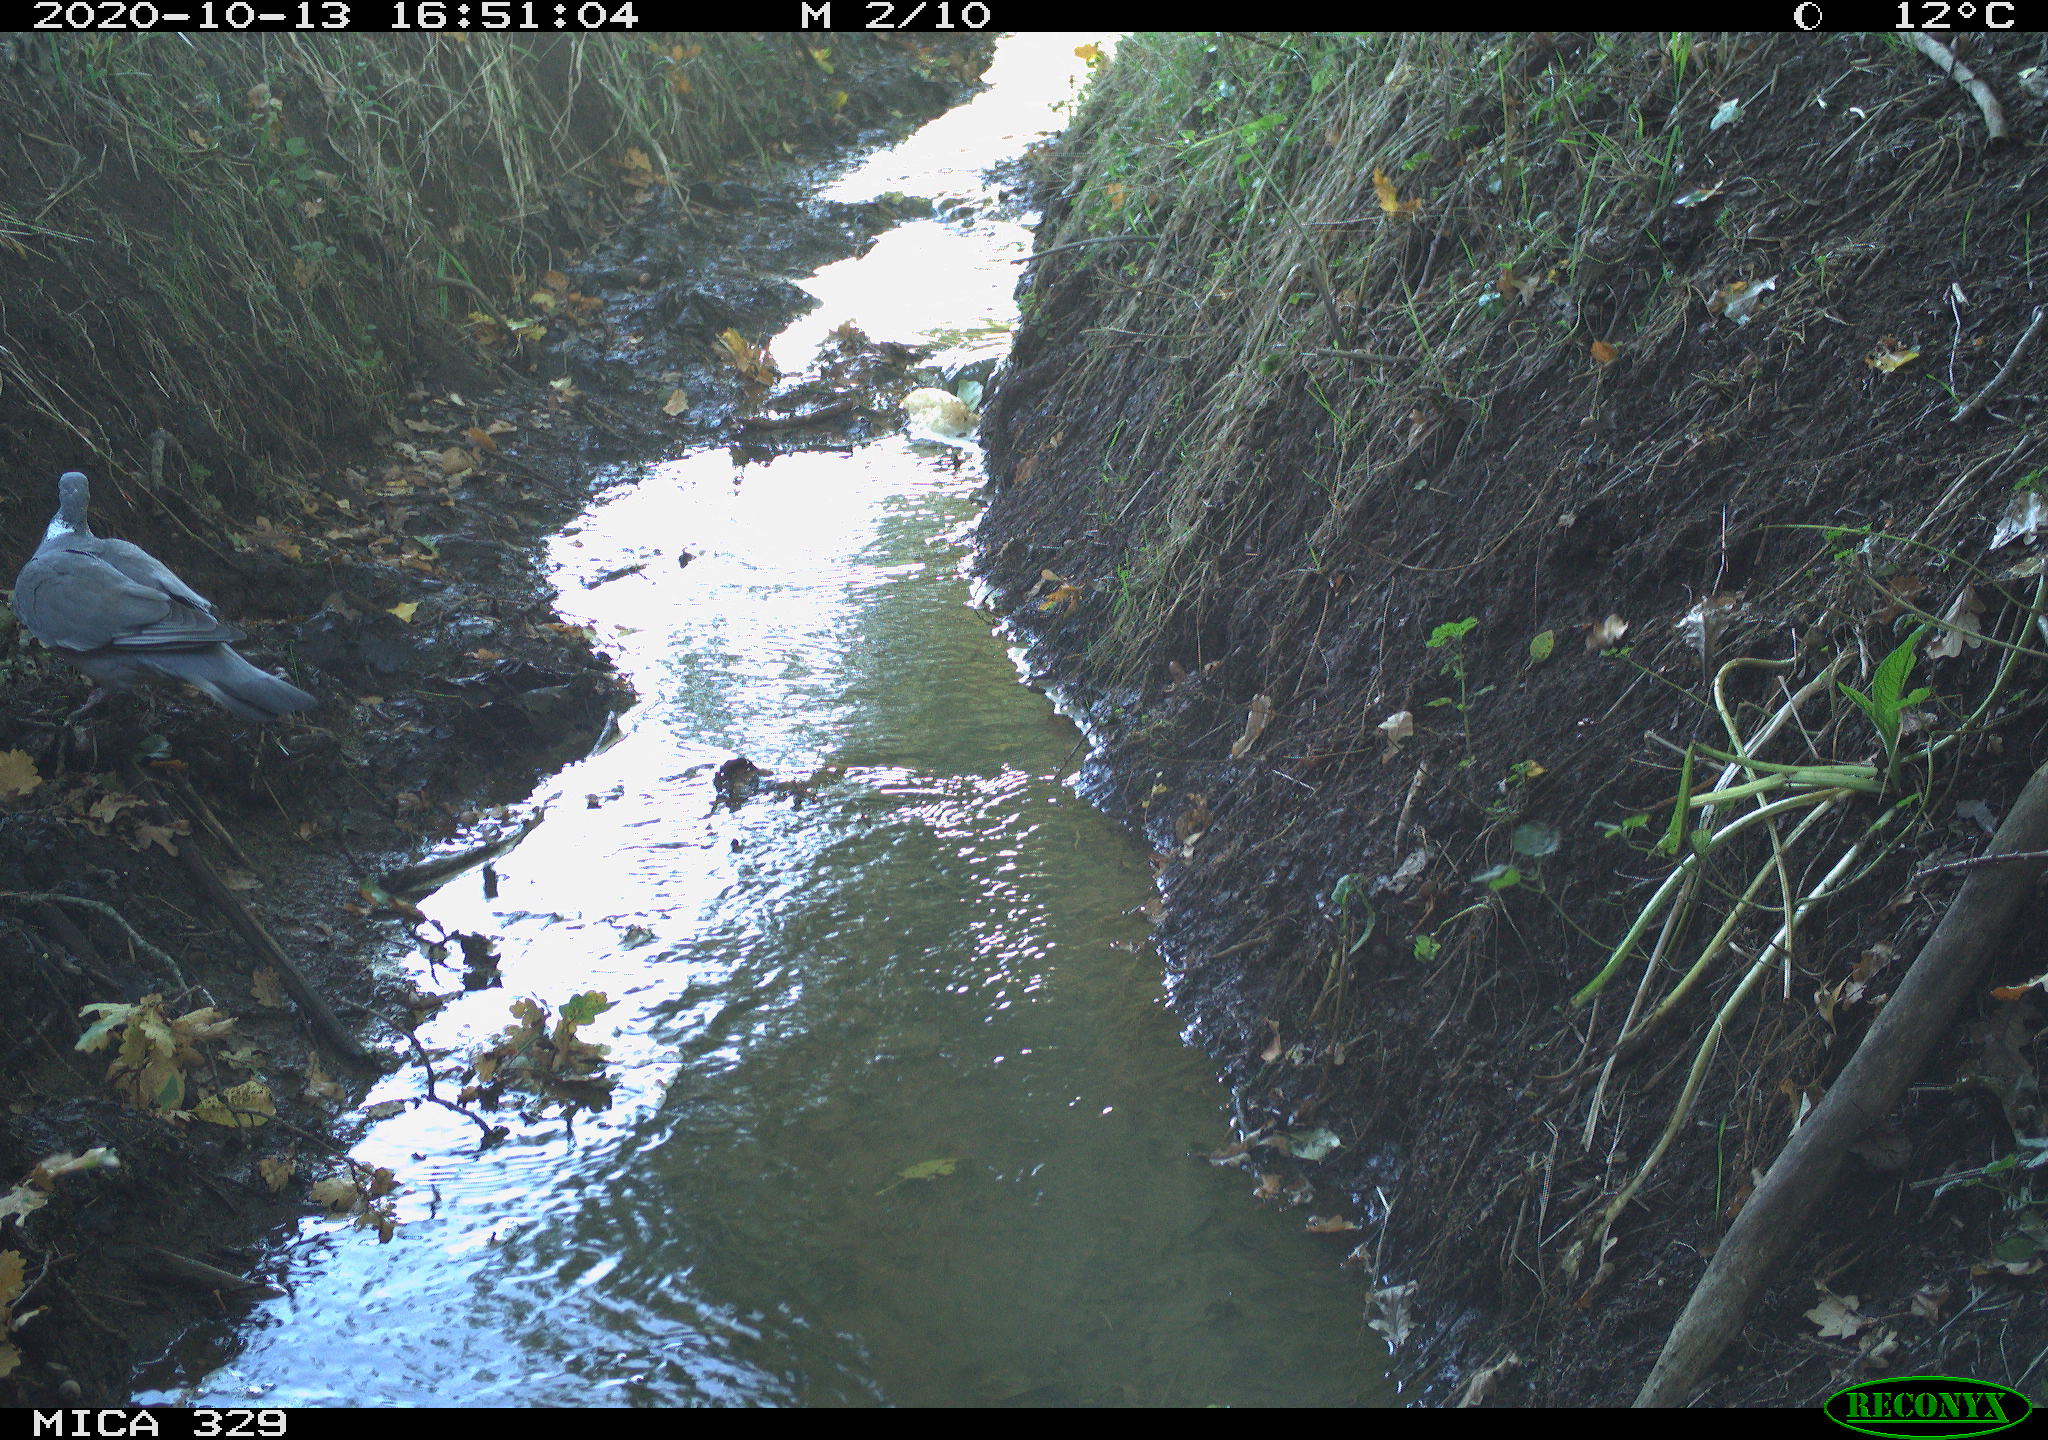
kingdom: Animalia
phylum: Chordata
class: Aves
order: Columbiformes
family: Columbidae
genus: Columba
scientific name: Columba palumbus
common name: Common wood pigeon
